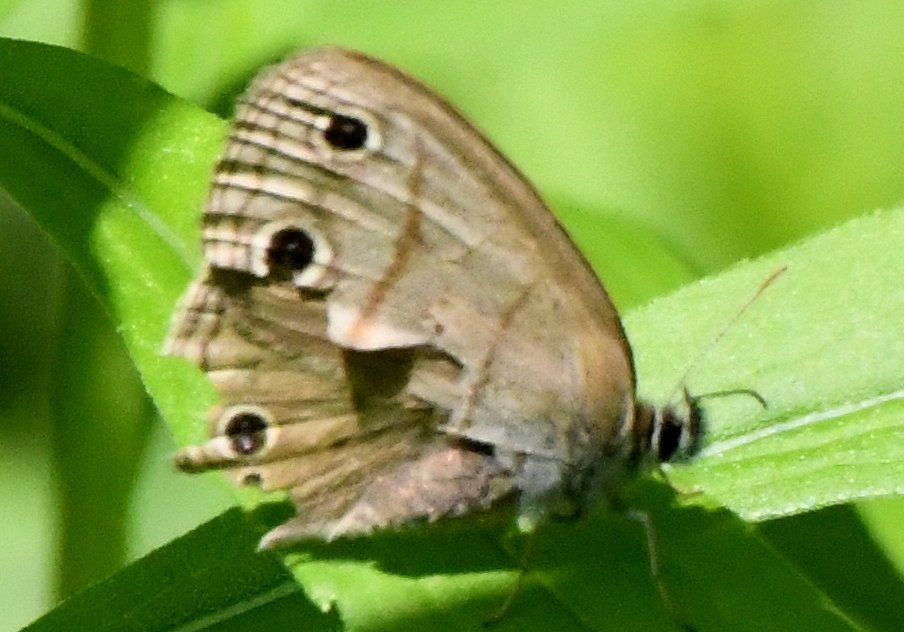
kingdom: Animalia
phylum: Arthropoda
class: Insecta
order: Lepidoptera
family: Nymphalidae
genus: Euptychia
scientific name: Euptychia cymela
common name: Little Wood Satyr
